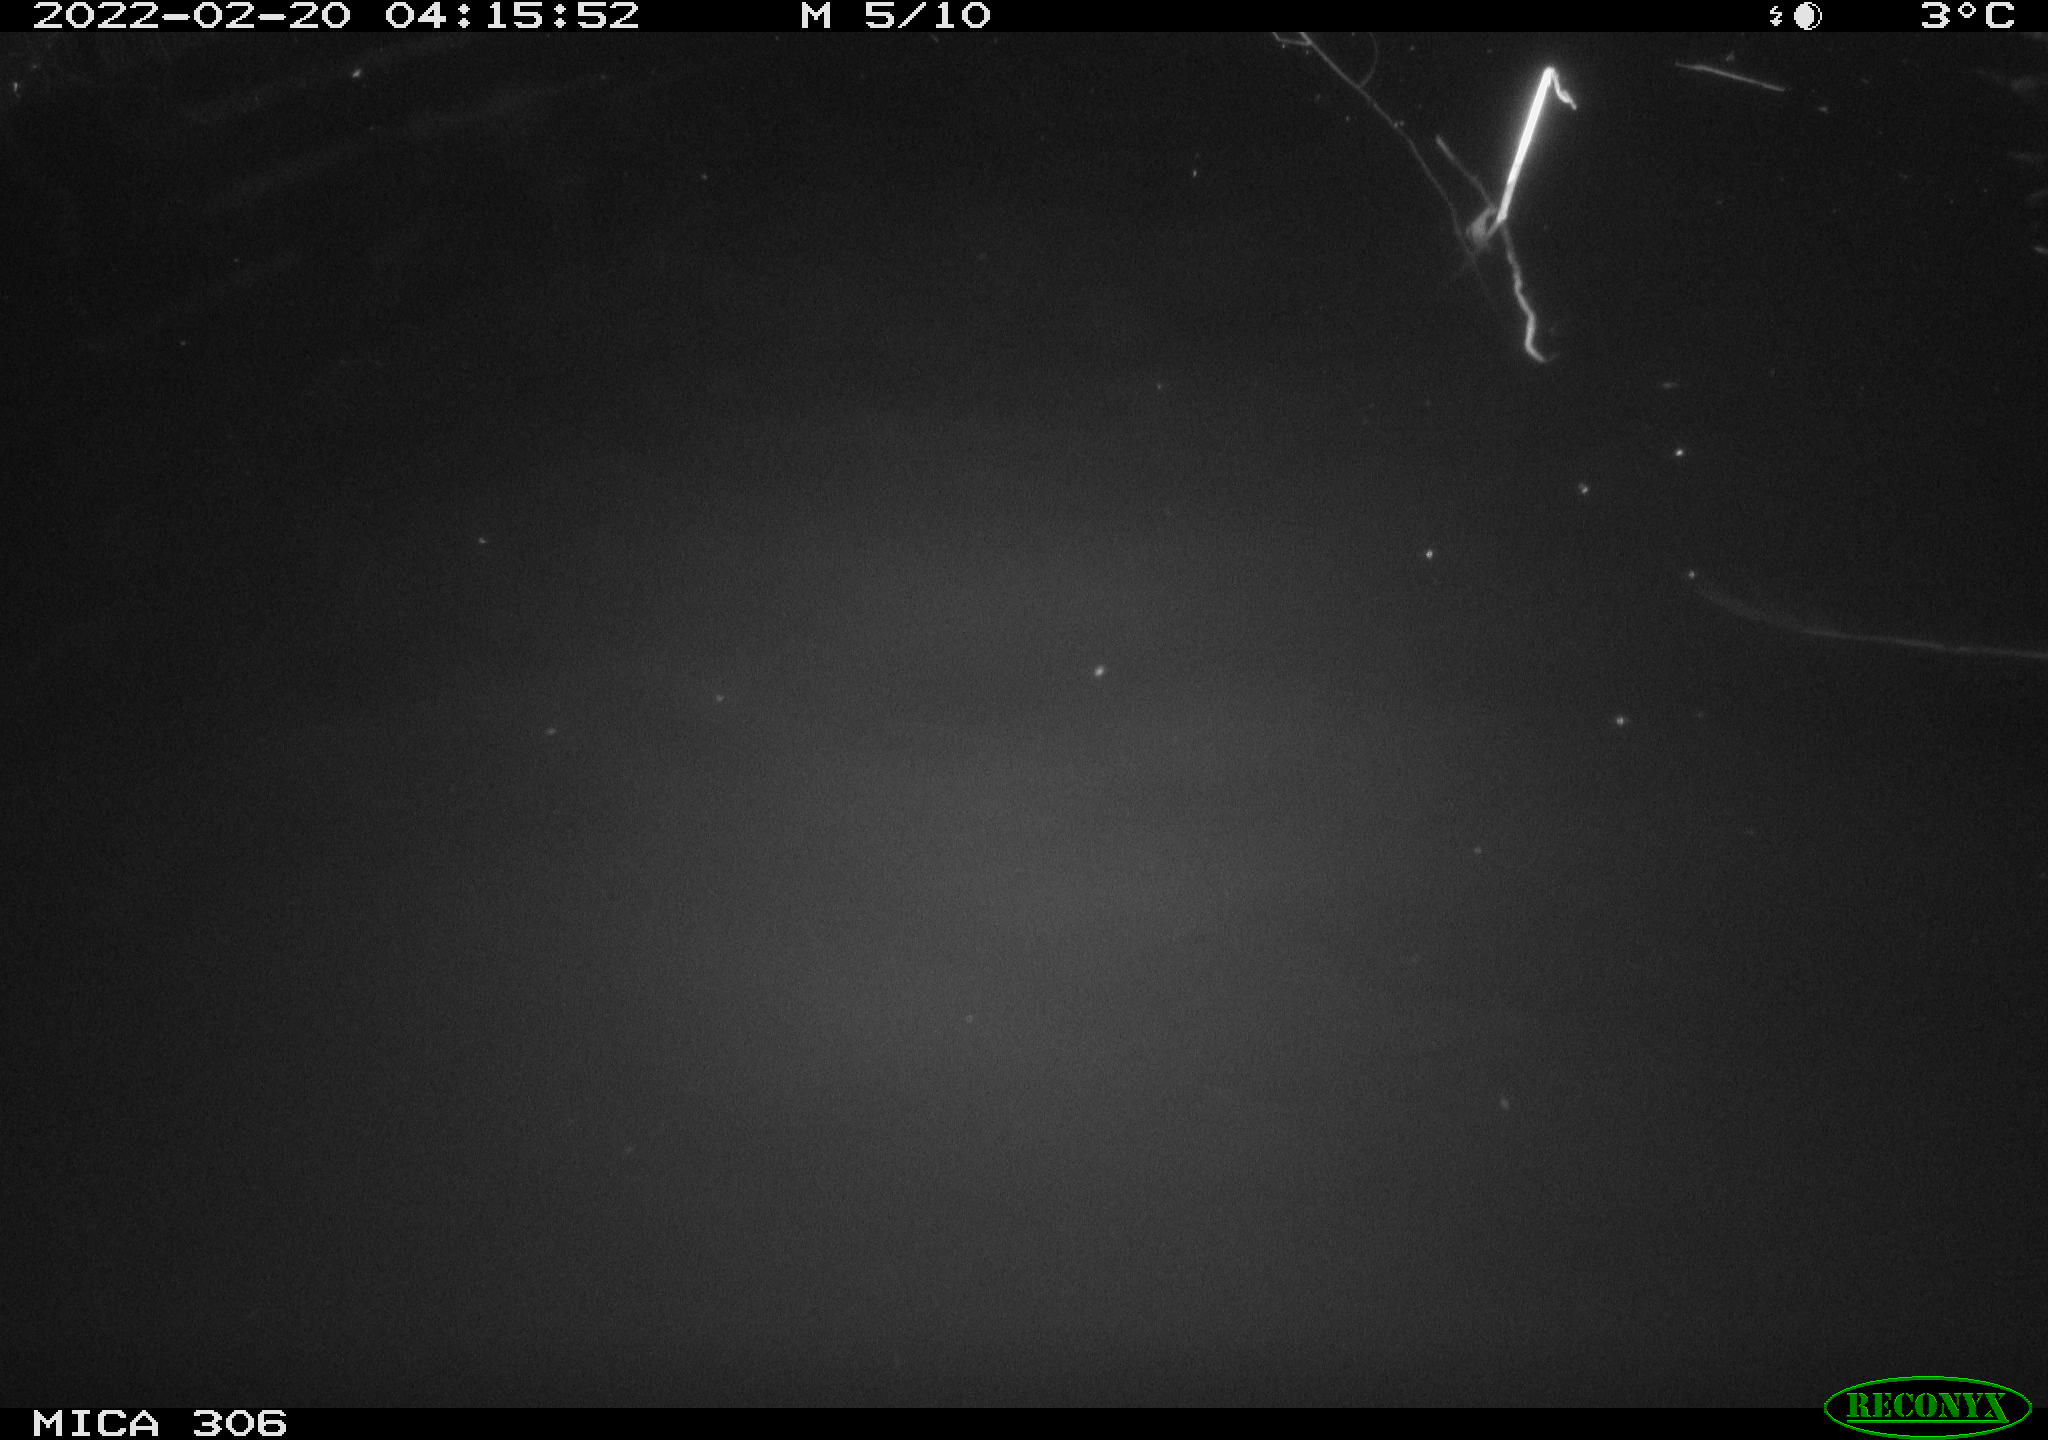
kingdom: Animalia
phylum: Chordata
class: Mammalia
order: Rodentia
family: Cricetidae
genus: Ondatra
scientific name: Ondatra zibethicus
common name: Muskrat
